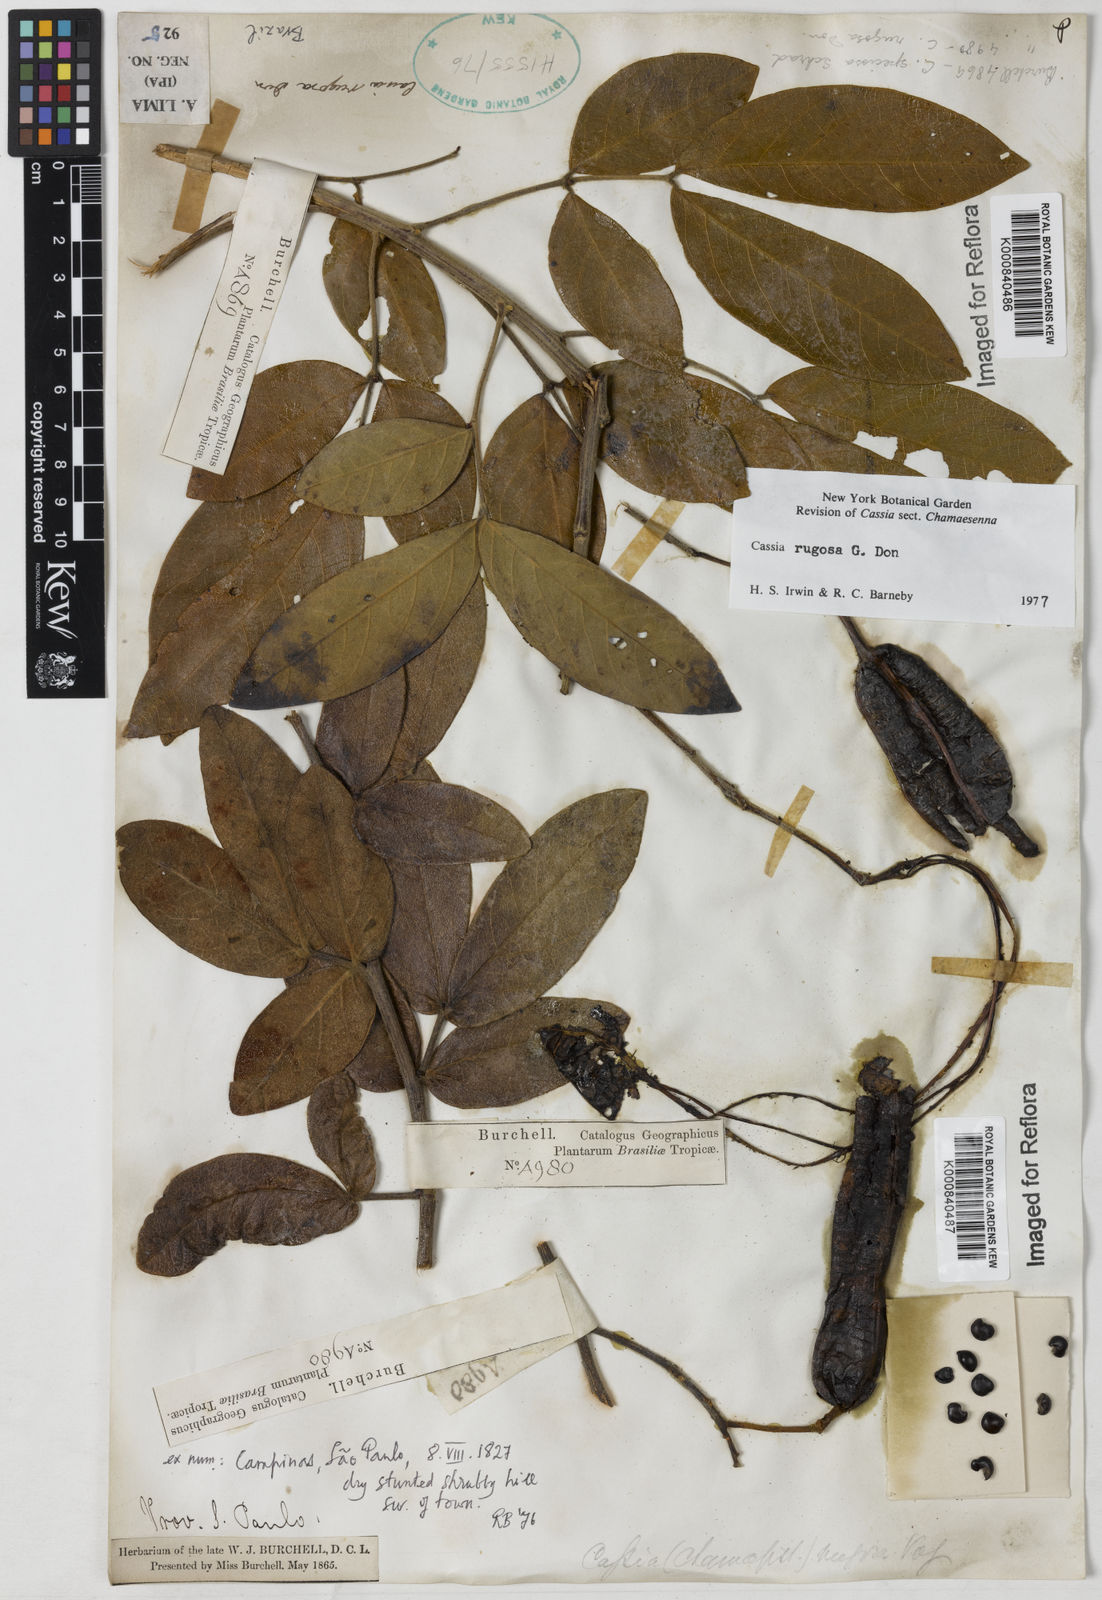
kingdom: Plantae
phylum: Tracheophyta
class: Magnoliopsida
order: Fabales
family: Fabaceae
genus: Senna
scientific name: Senna rugosa
